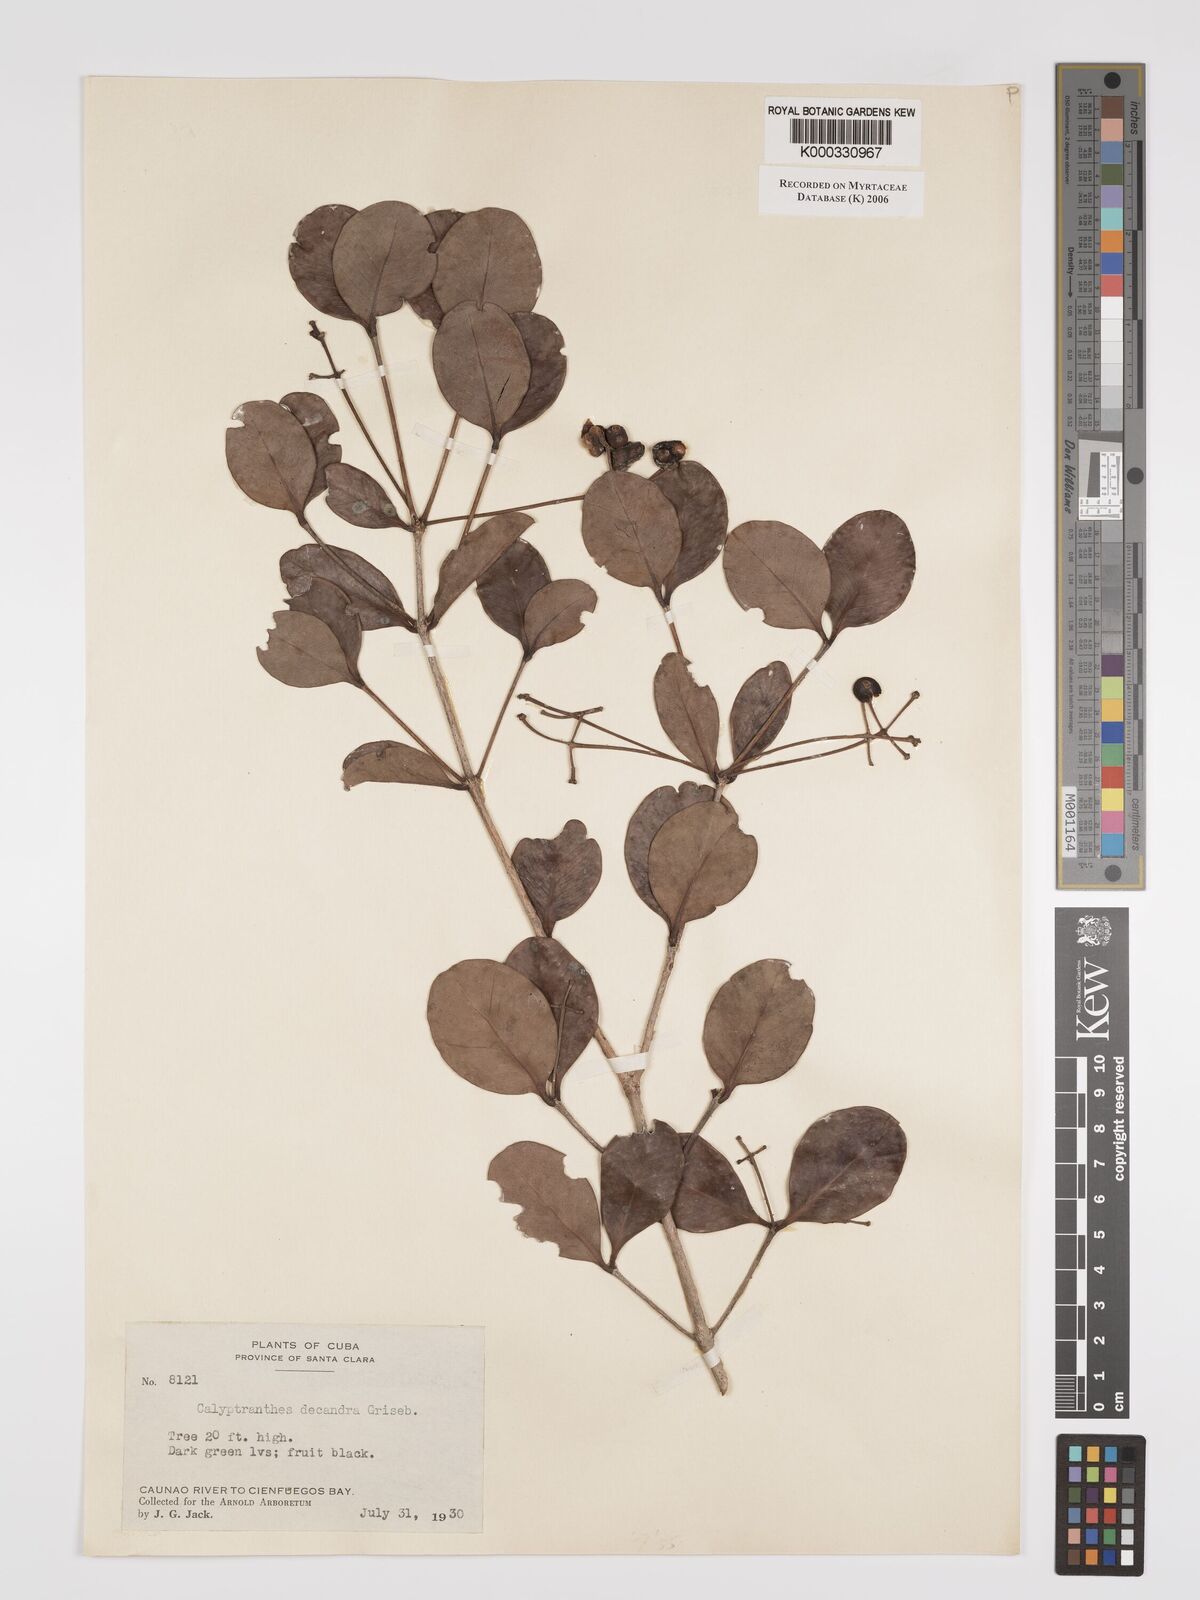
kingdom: Plantae
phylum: Tracheophyta
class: Magnoliopsida
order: Myrtales
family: Myrtaceae
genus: Myrcia
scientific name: Myrcia decandra
